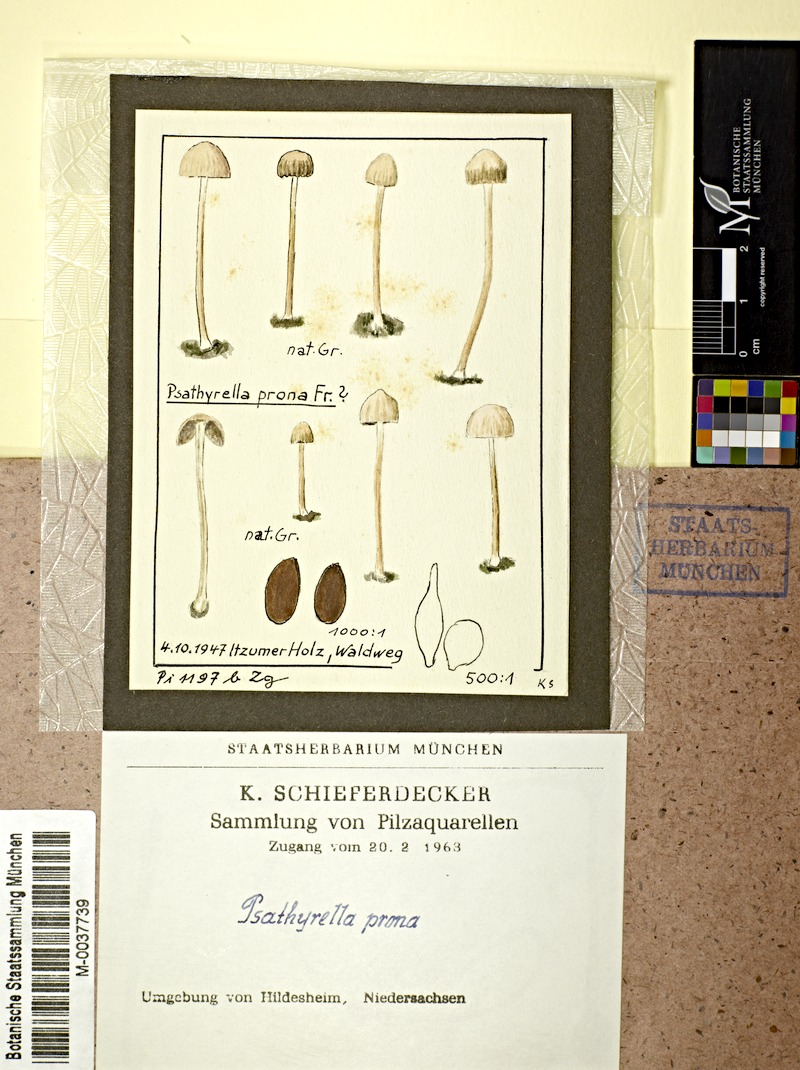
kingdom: Fungi
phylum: Basidiomycota
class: Agaricomycetes
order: Agaricales
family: Psathyrellaceae
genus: Psathyrella
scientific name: Psathyrella prona
